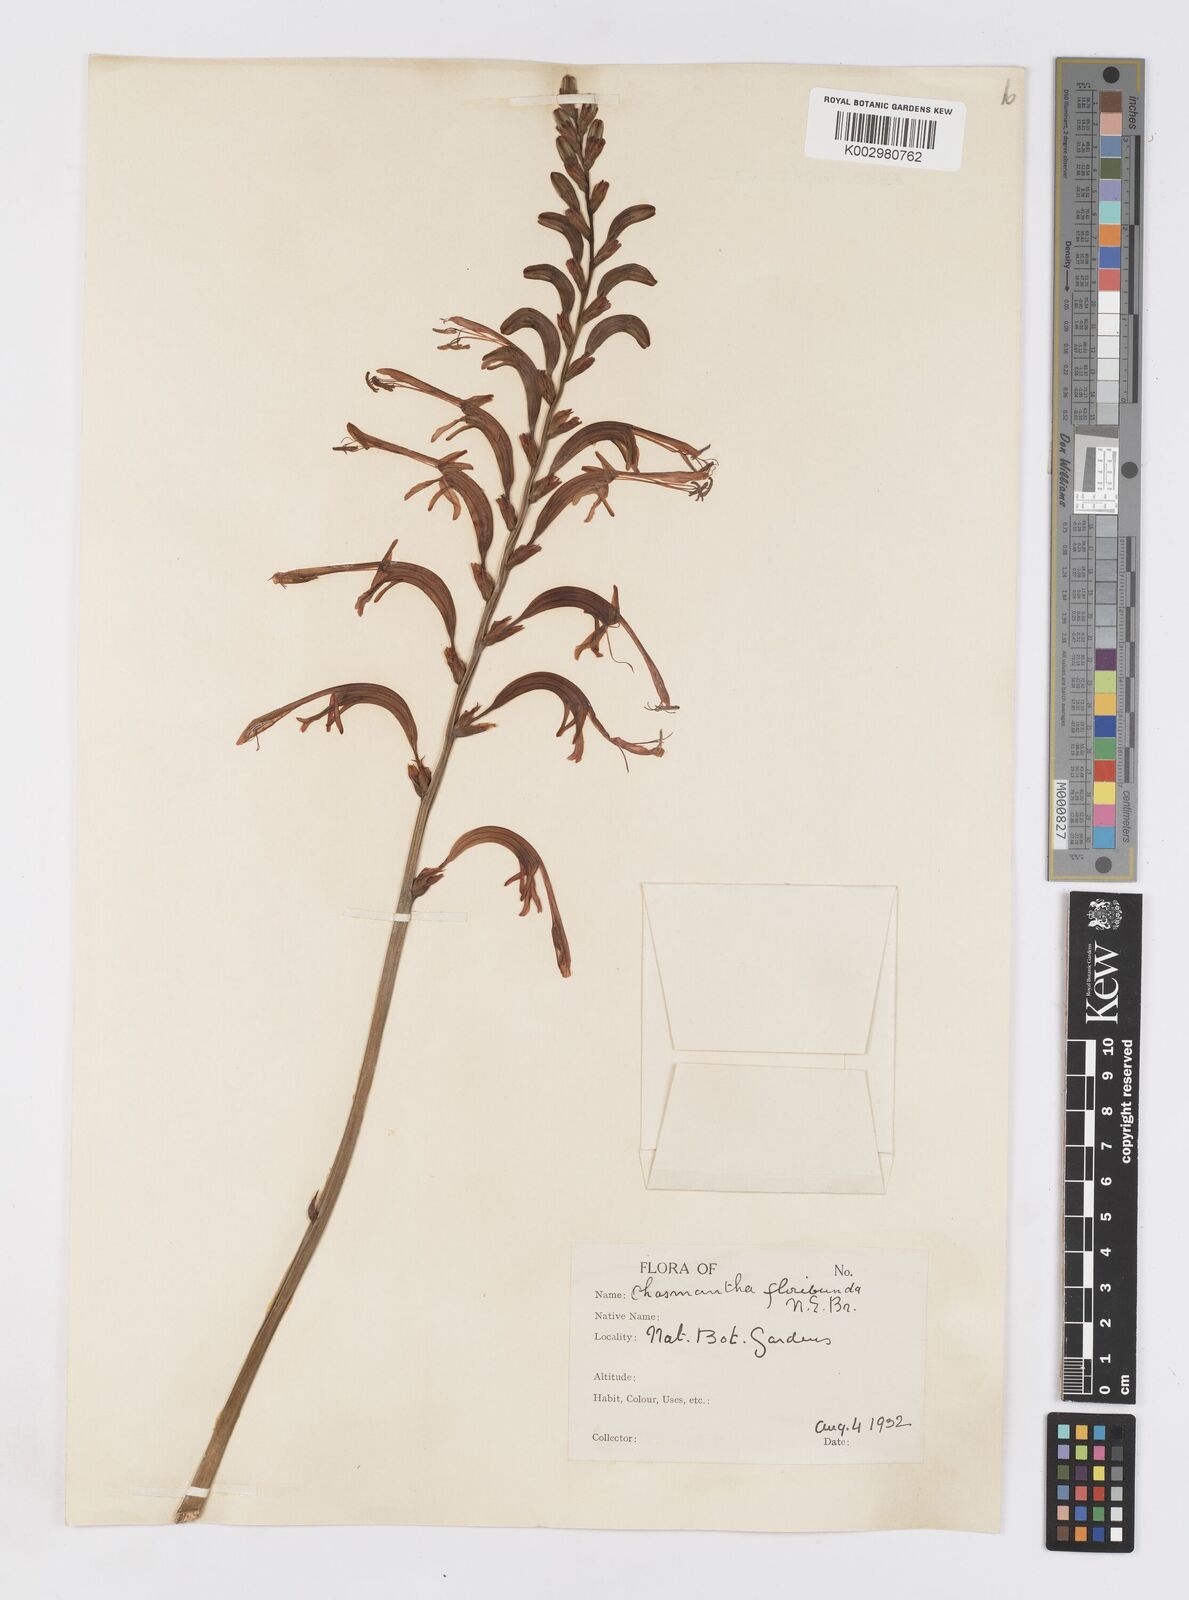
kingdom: Plantae
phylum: Tracheophyta
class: Liliopsida
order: Asparagales
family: Iridaceae
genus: Chasmanthe
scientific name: Chasmanthe floribunda
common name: African cornflag
